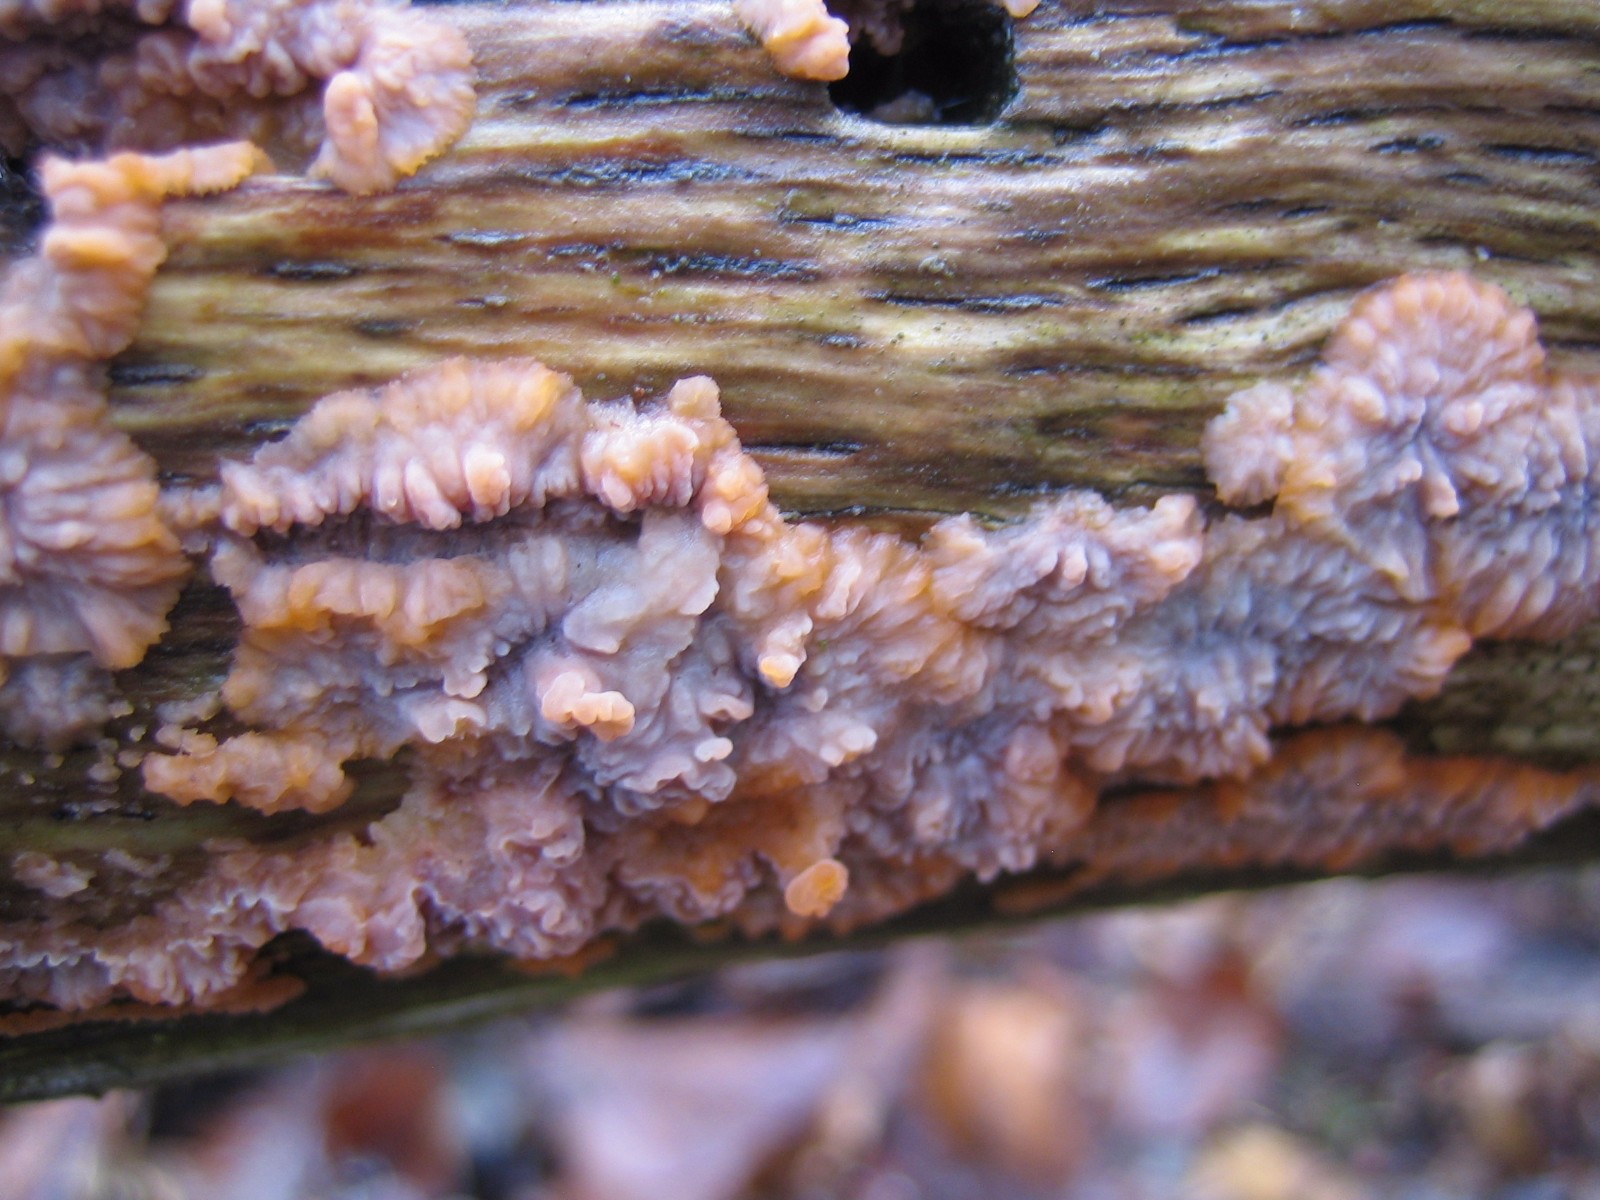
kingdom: Fungi
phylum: Basidiomycota
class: Agaricomycetes
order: Polyporales
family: Meruliaceae
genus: Phlebia
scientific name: Phlebia radiata
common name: stråle-åresvamp
